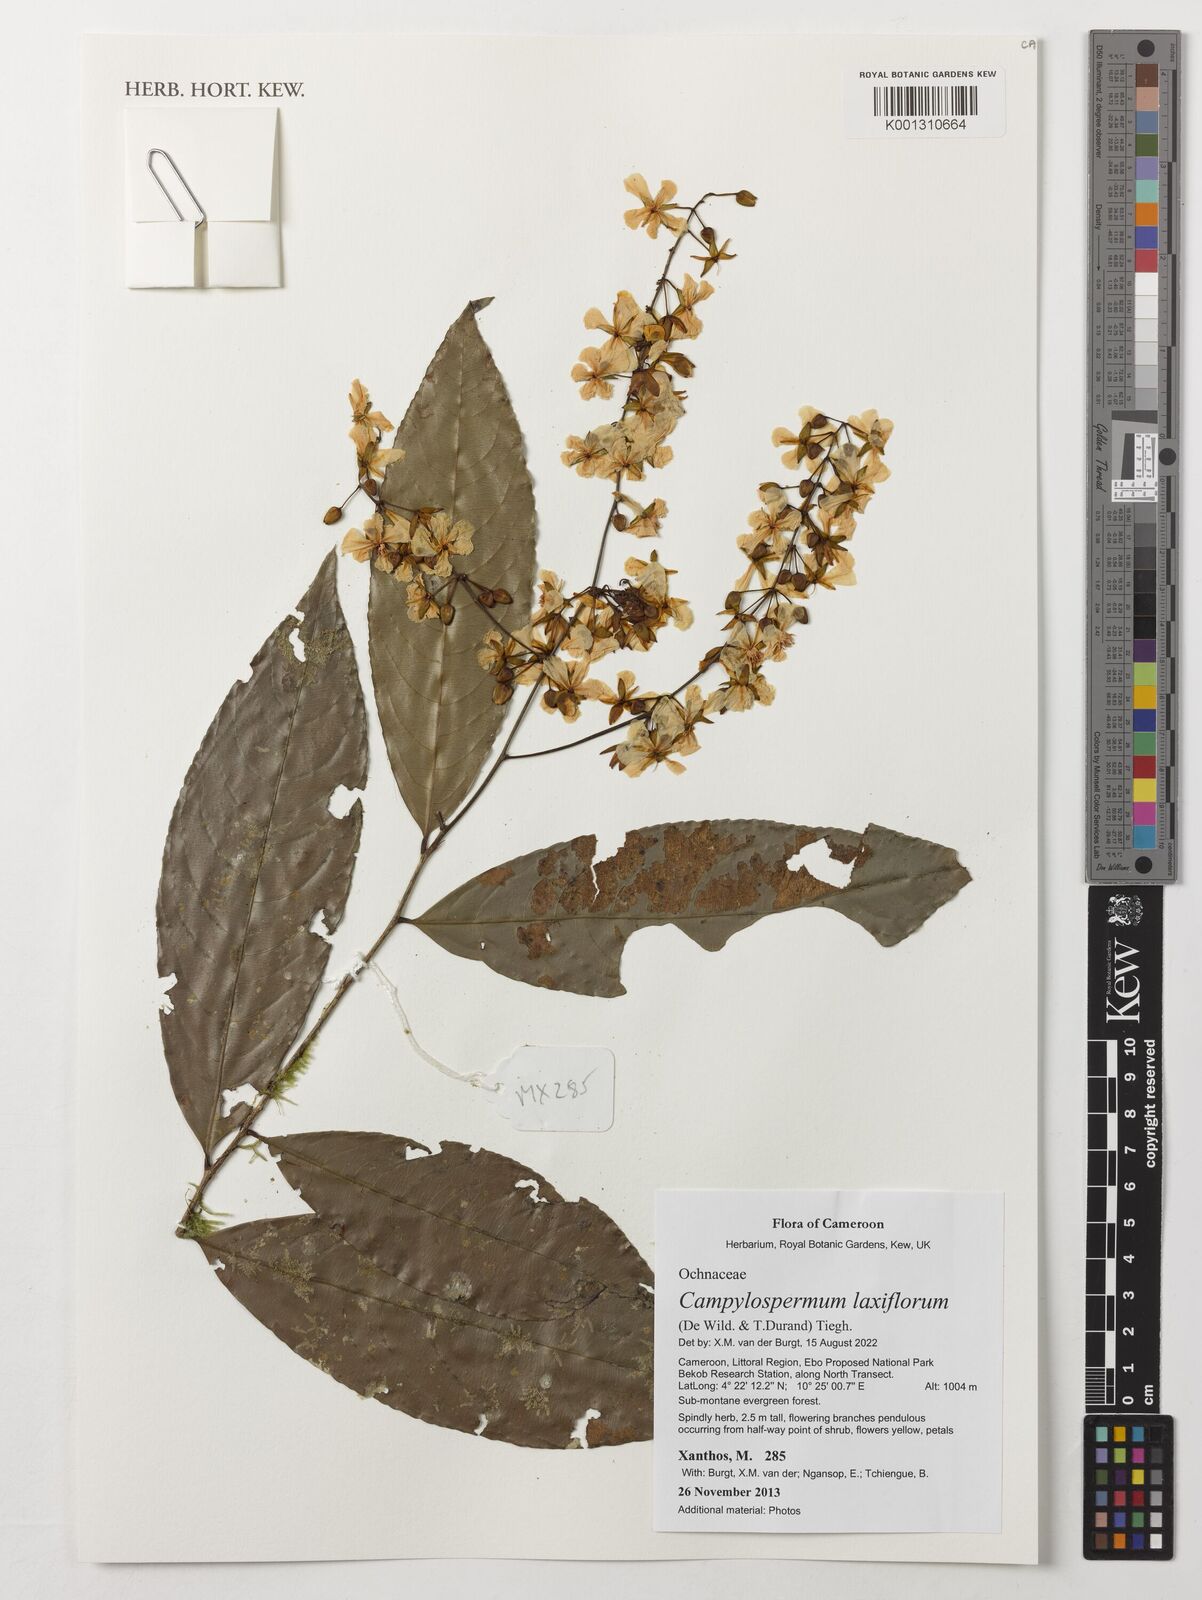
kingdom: Plantae
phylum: Tracheophyta
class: Magnoliopsida
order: Malpighiales
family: Ochnaceae
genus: Campylospermum
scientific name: Campylospermum laxiflorum
